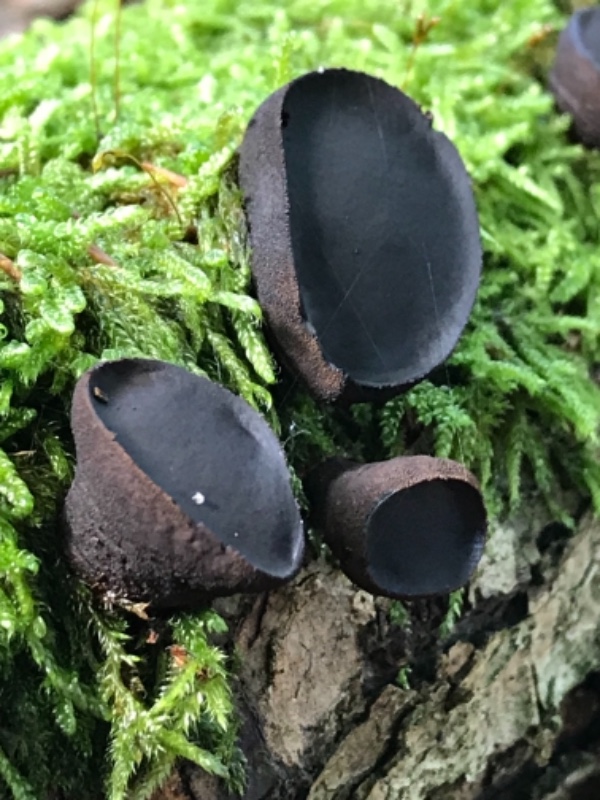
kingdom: Fungi
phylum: Ascomycota
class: Leotiomycetes
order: Phacidiales
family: Phacidiaceae
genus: Bulgaria
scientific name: Bulgaria inquinans
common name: afsmittende topsvamp
